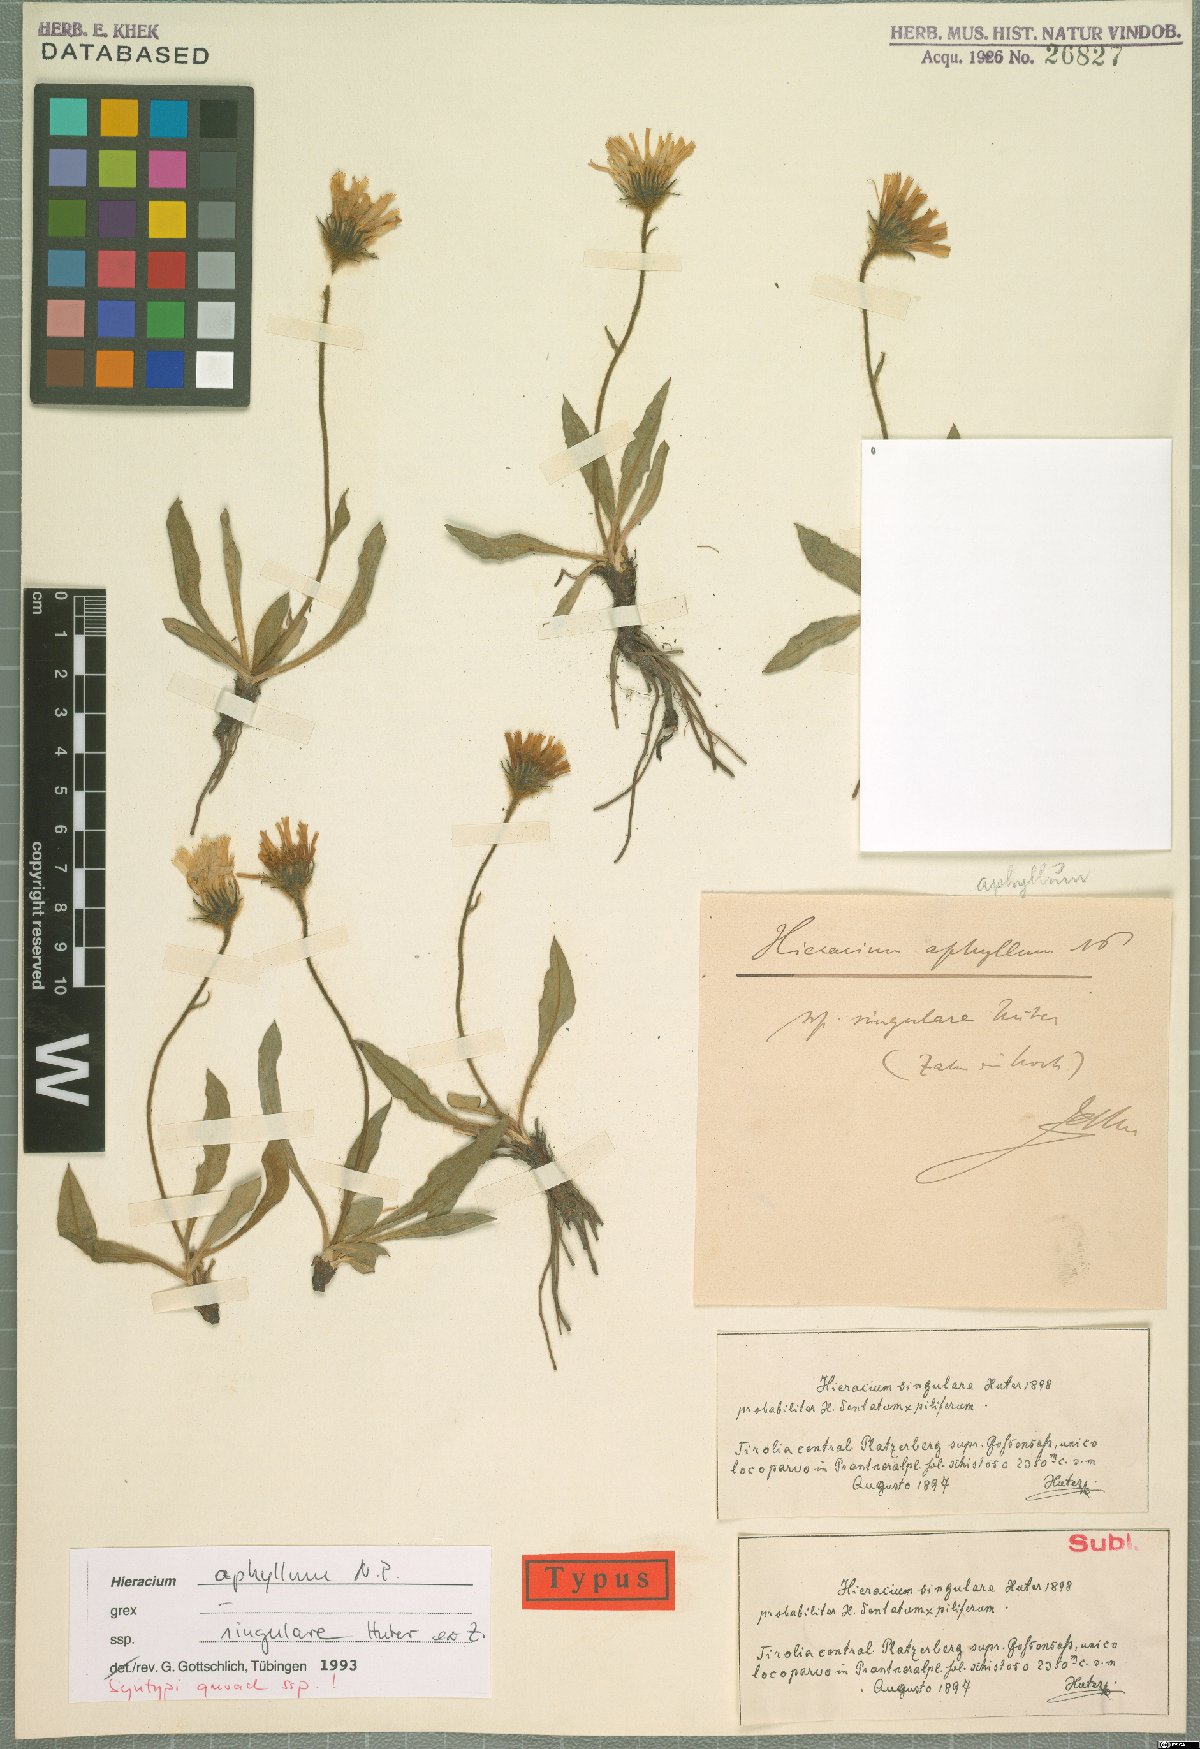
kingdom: Plantae
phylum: Tracheophyta
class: Magnoliopsida
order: Asterales
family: Asteraceae
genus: Hieracium
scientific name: Hieracium aphyllum
